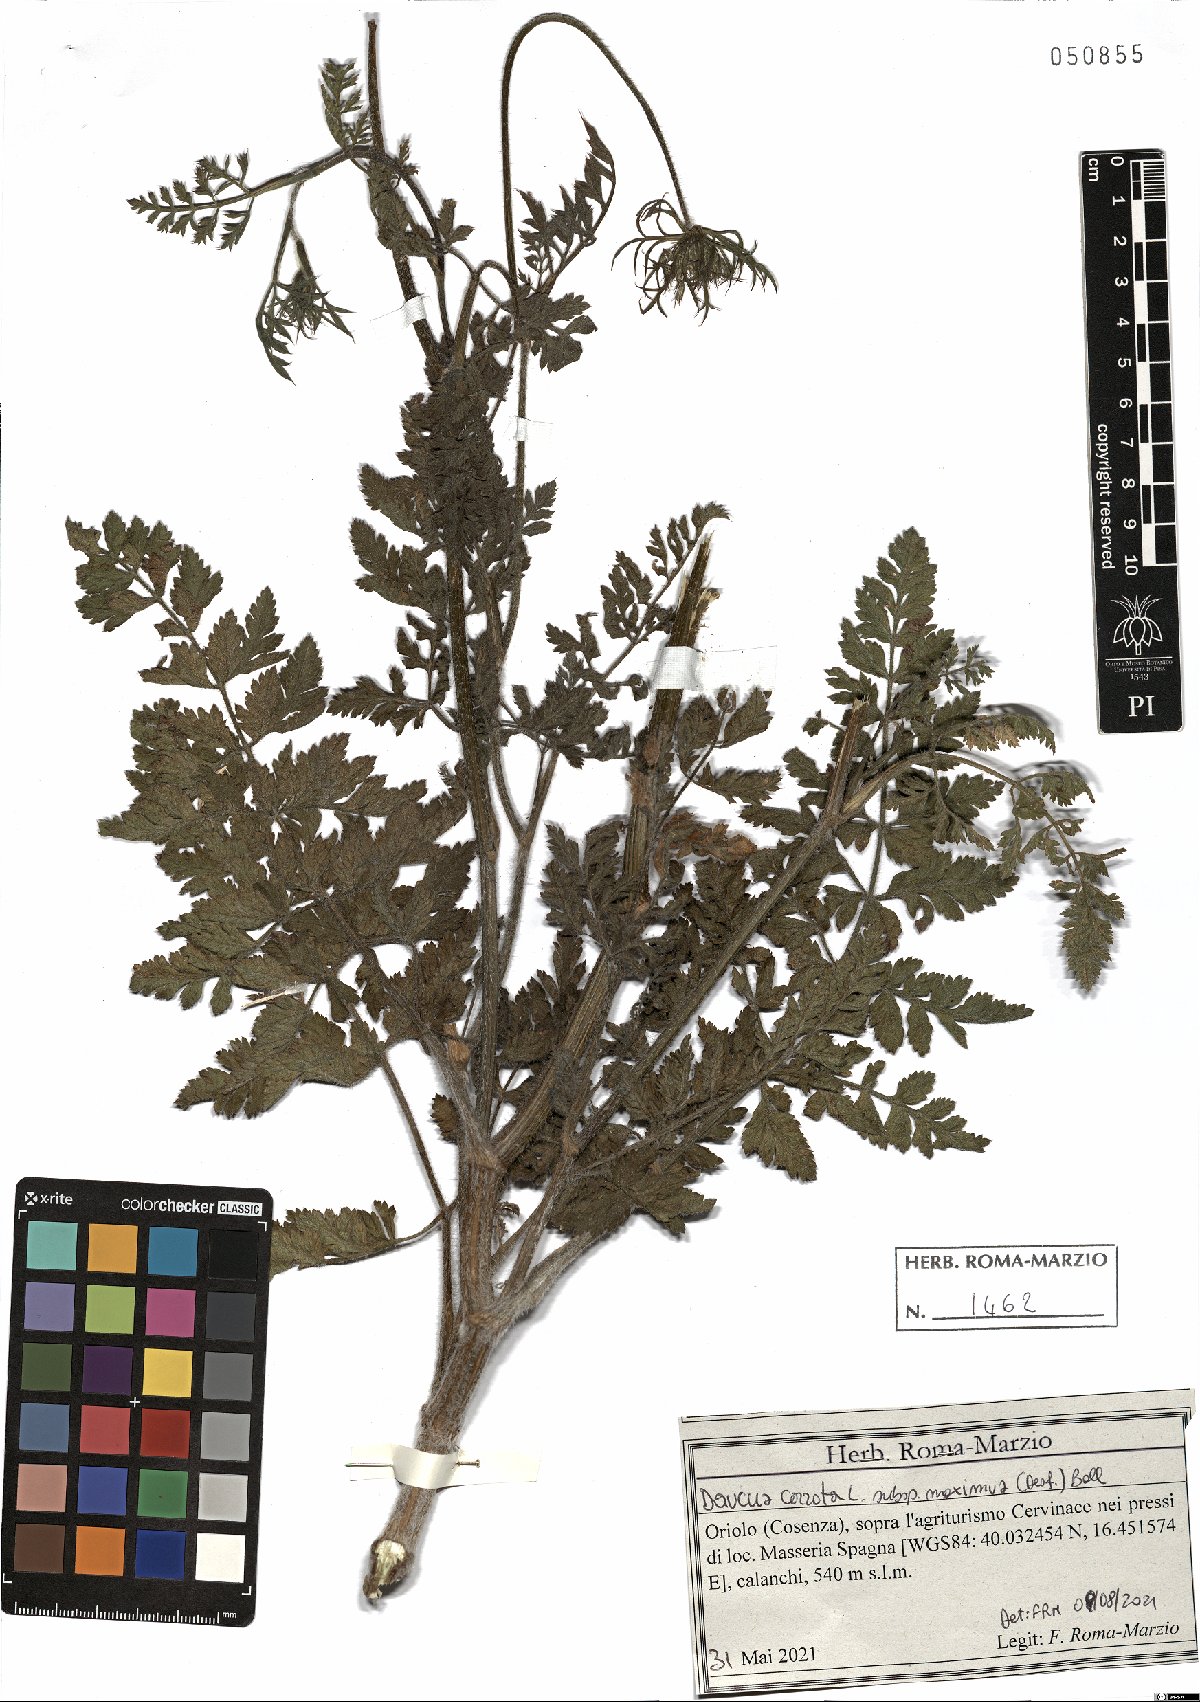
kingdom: Plantae
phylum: Tracheophyta
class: Magnoliopsida
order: Apiales
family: Apiaceae
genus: Daucus
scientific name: Daucus carota
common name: Wild carrot
